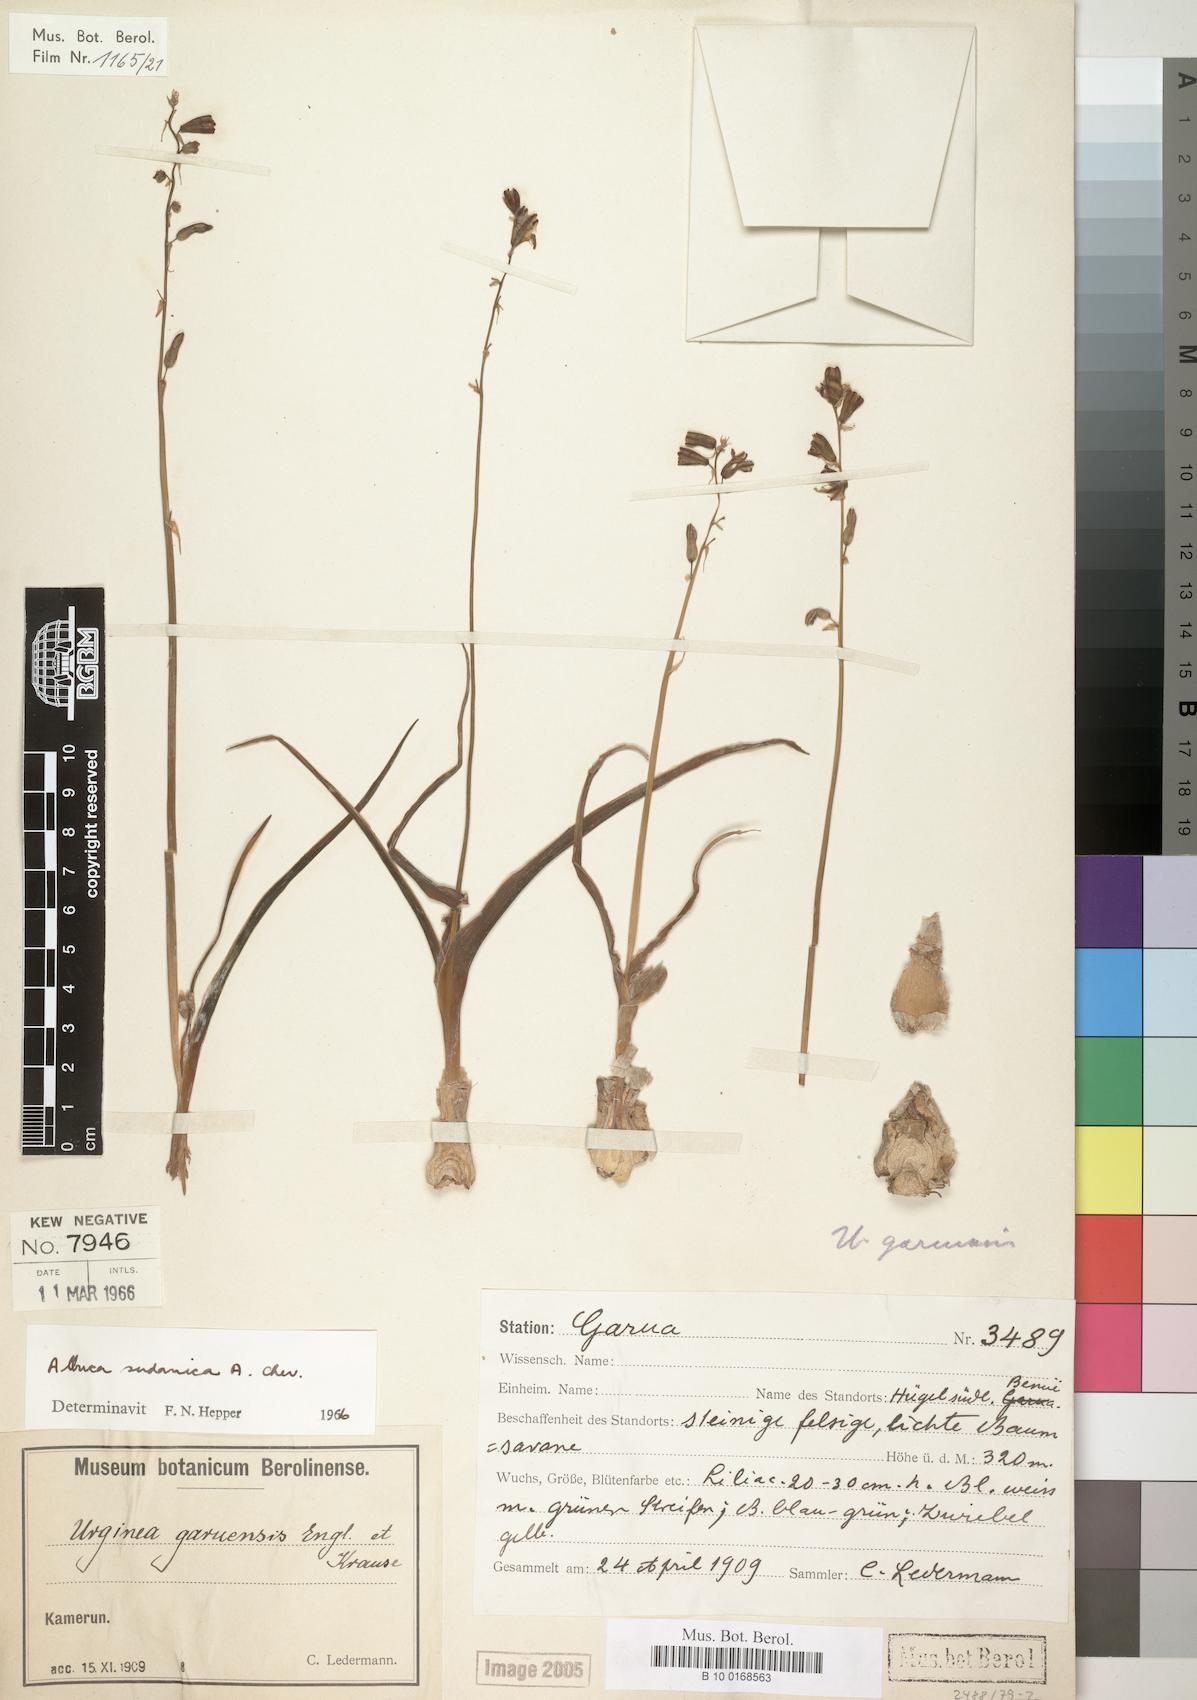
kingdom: Plantae
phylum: Tracheophyta
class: Liliopsida
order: Asparagales
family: Asparagaceae
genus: Albuca
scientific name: Albuca sudanica
